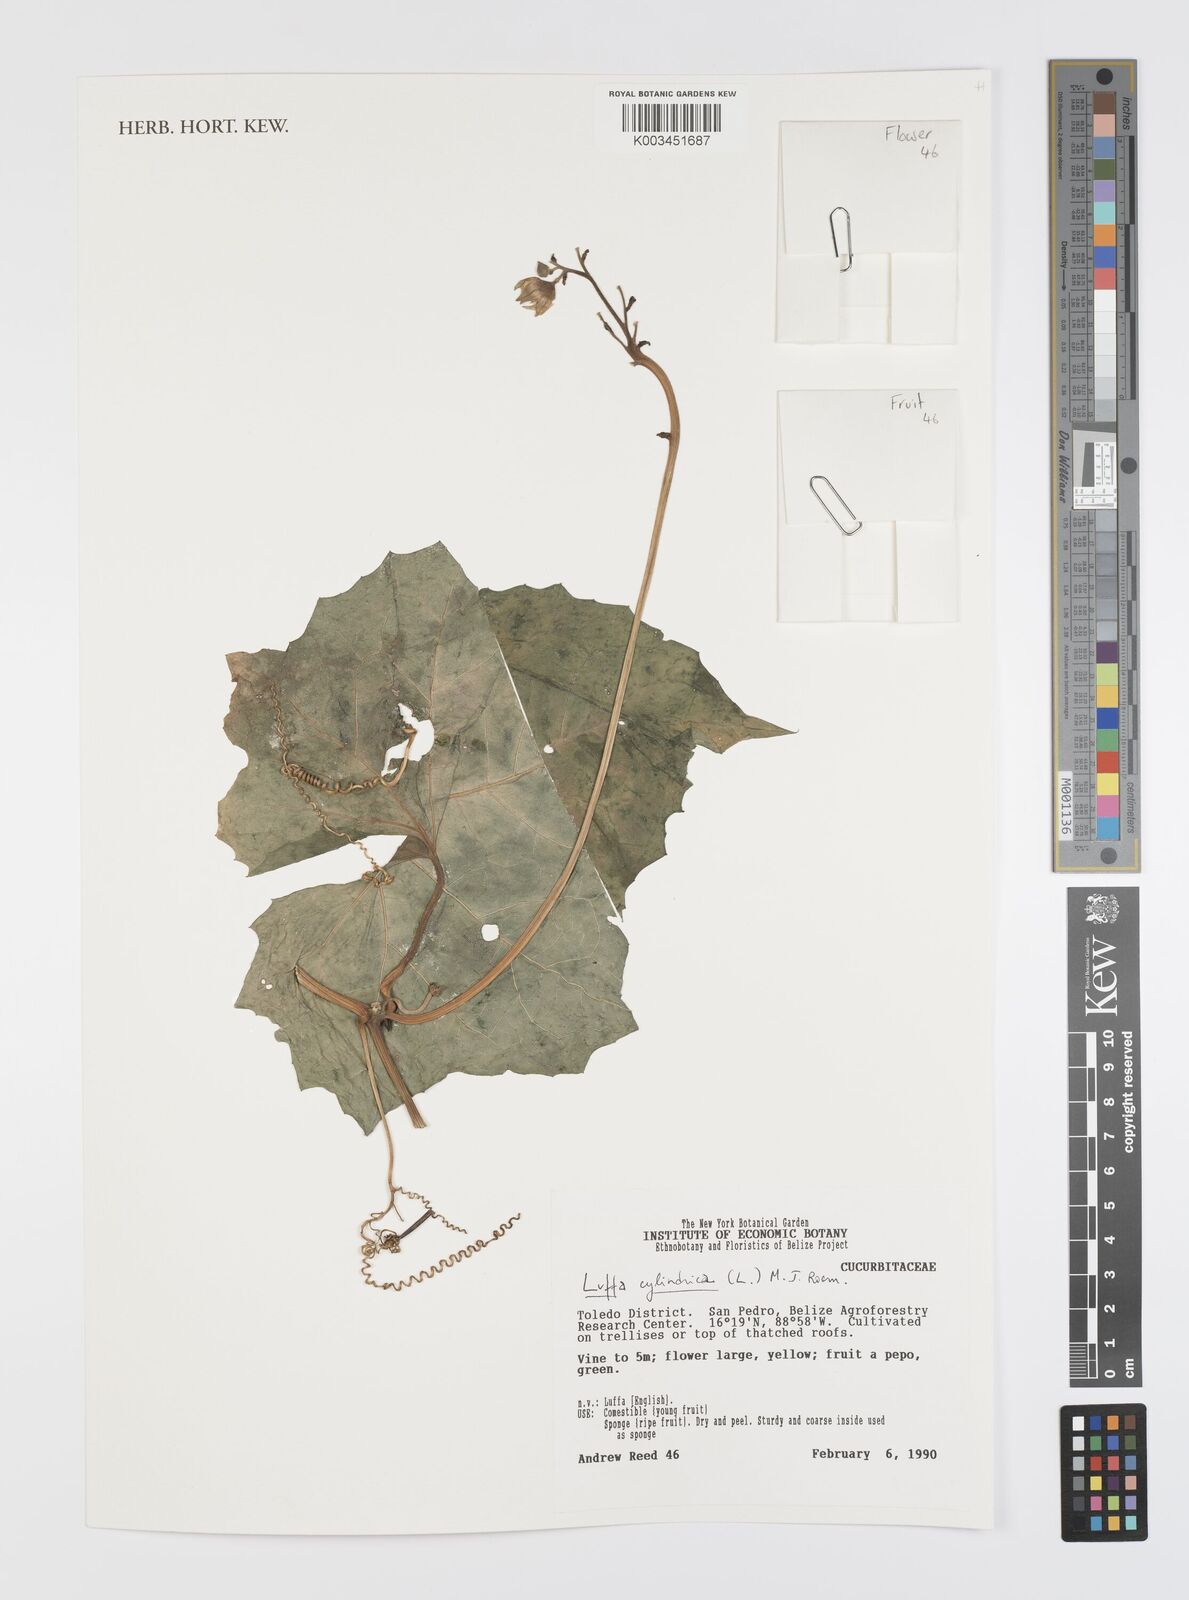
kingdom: Plantae
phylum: Tracheophyta
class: Magnoliopsida
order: Cucurbitales
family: Cucurbitaceae
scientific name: Cucurbitaceae
